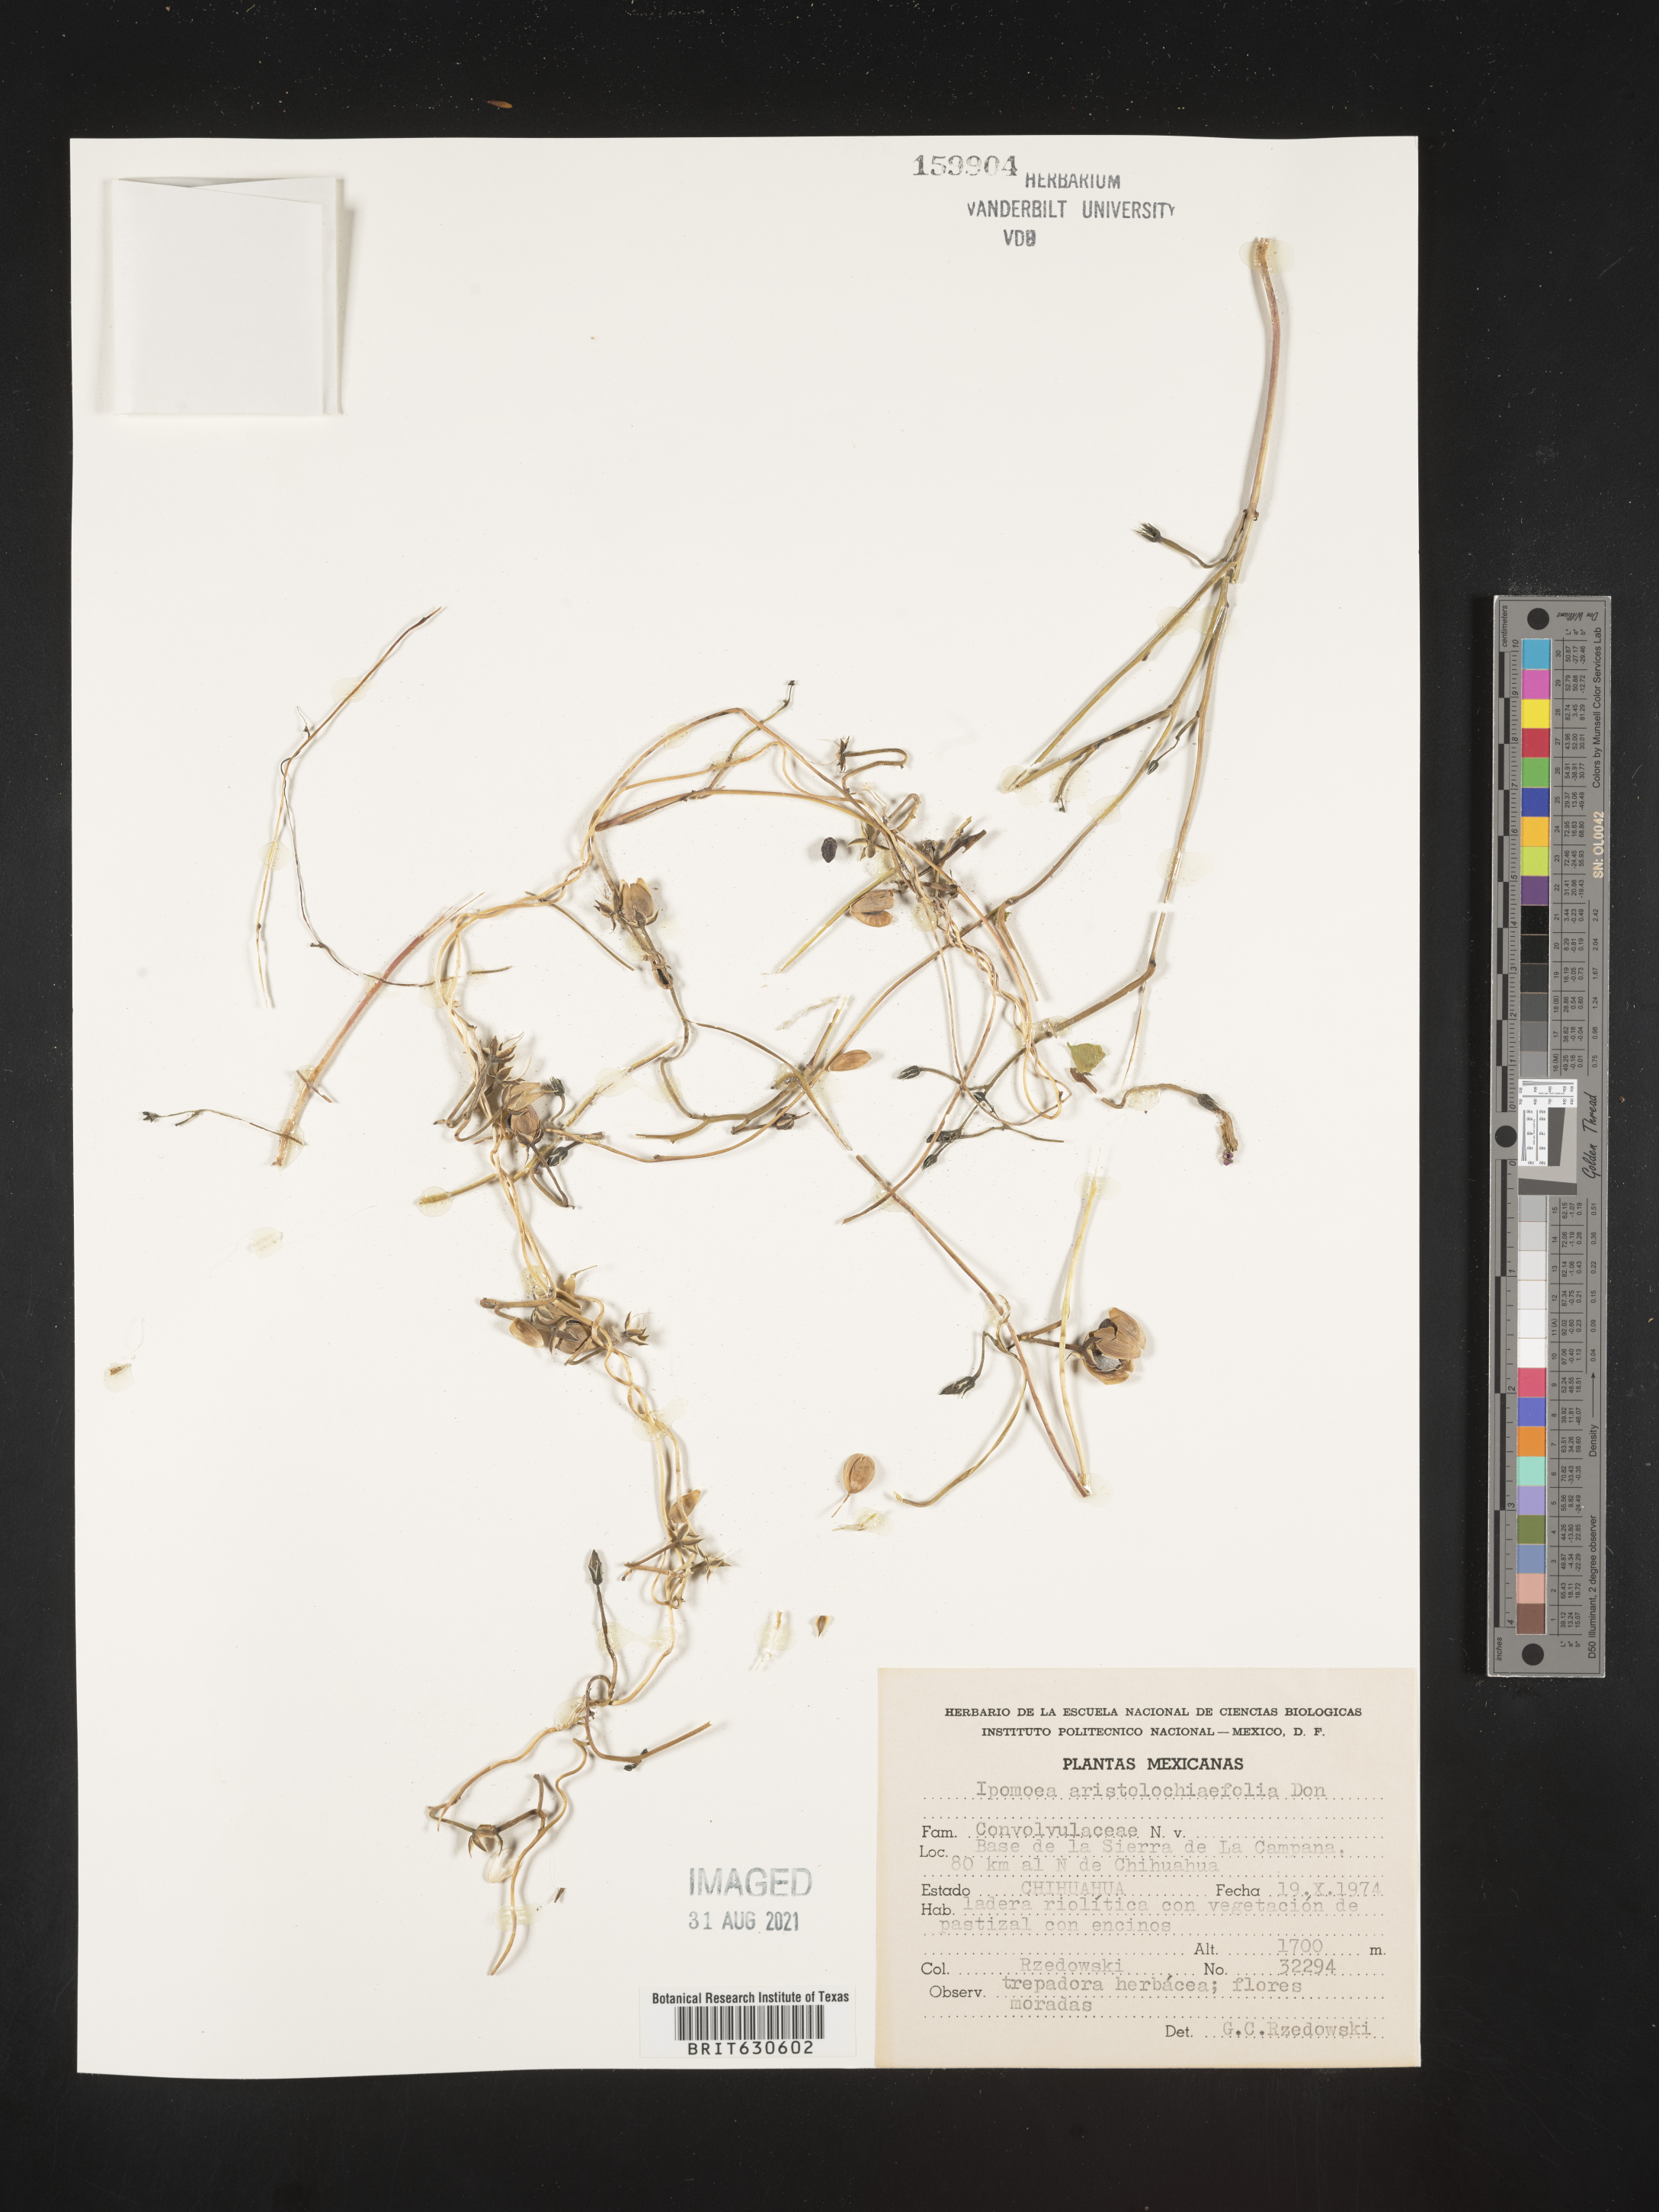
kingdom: Plantae
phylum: Tracheophyta
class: Magnoliopsida
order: Solanales
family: Convolvulaceae
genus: Ipomoea
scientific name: Ipomoea
